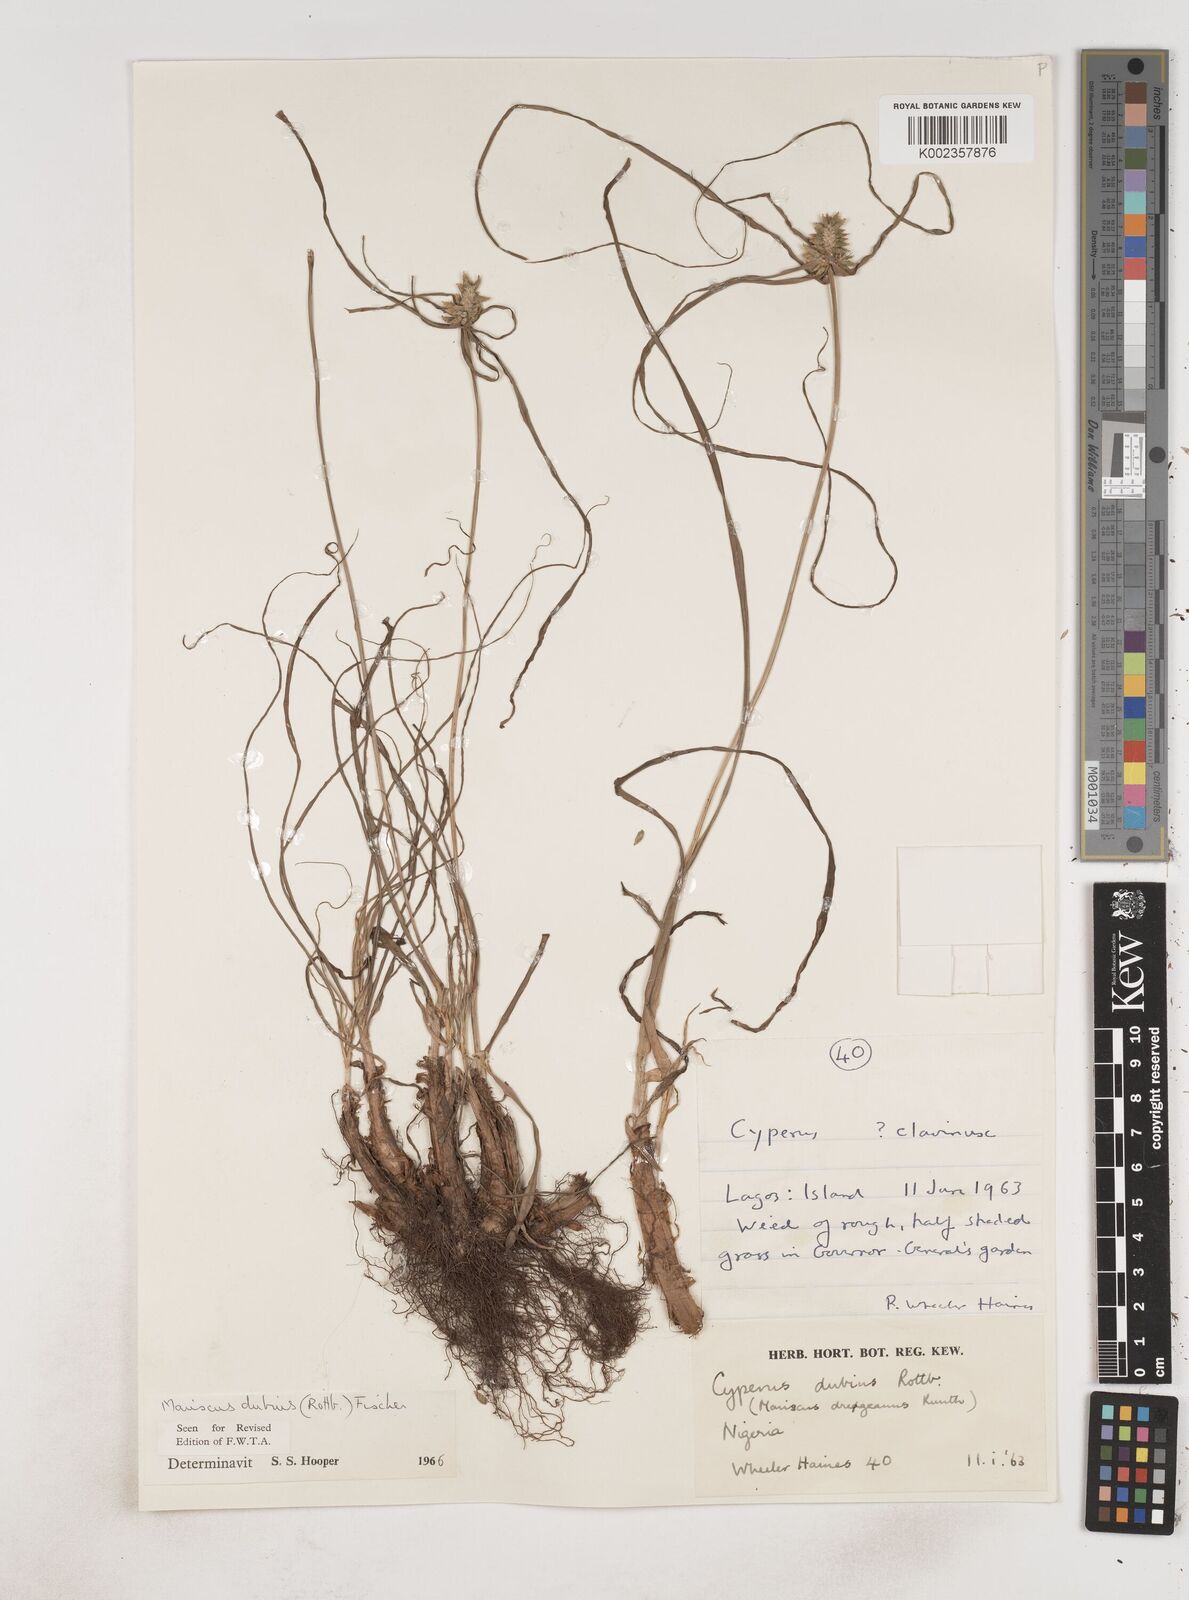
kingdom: Plantae
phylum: Tracheophyta
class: Liliopsida
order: Poales
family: Cyperaceae
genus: Cyperus
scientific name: Cyperus dubius
